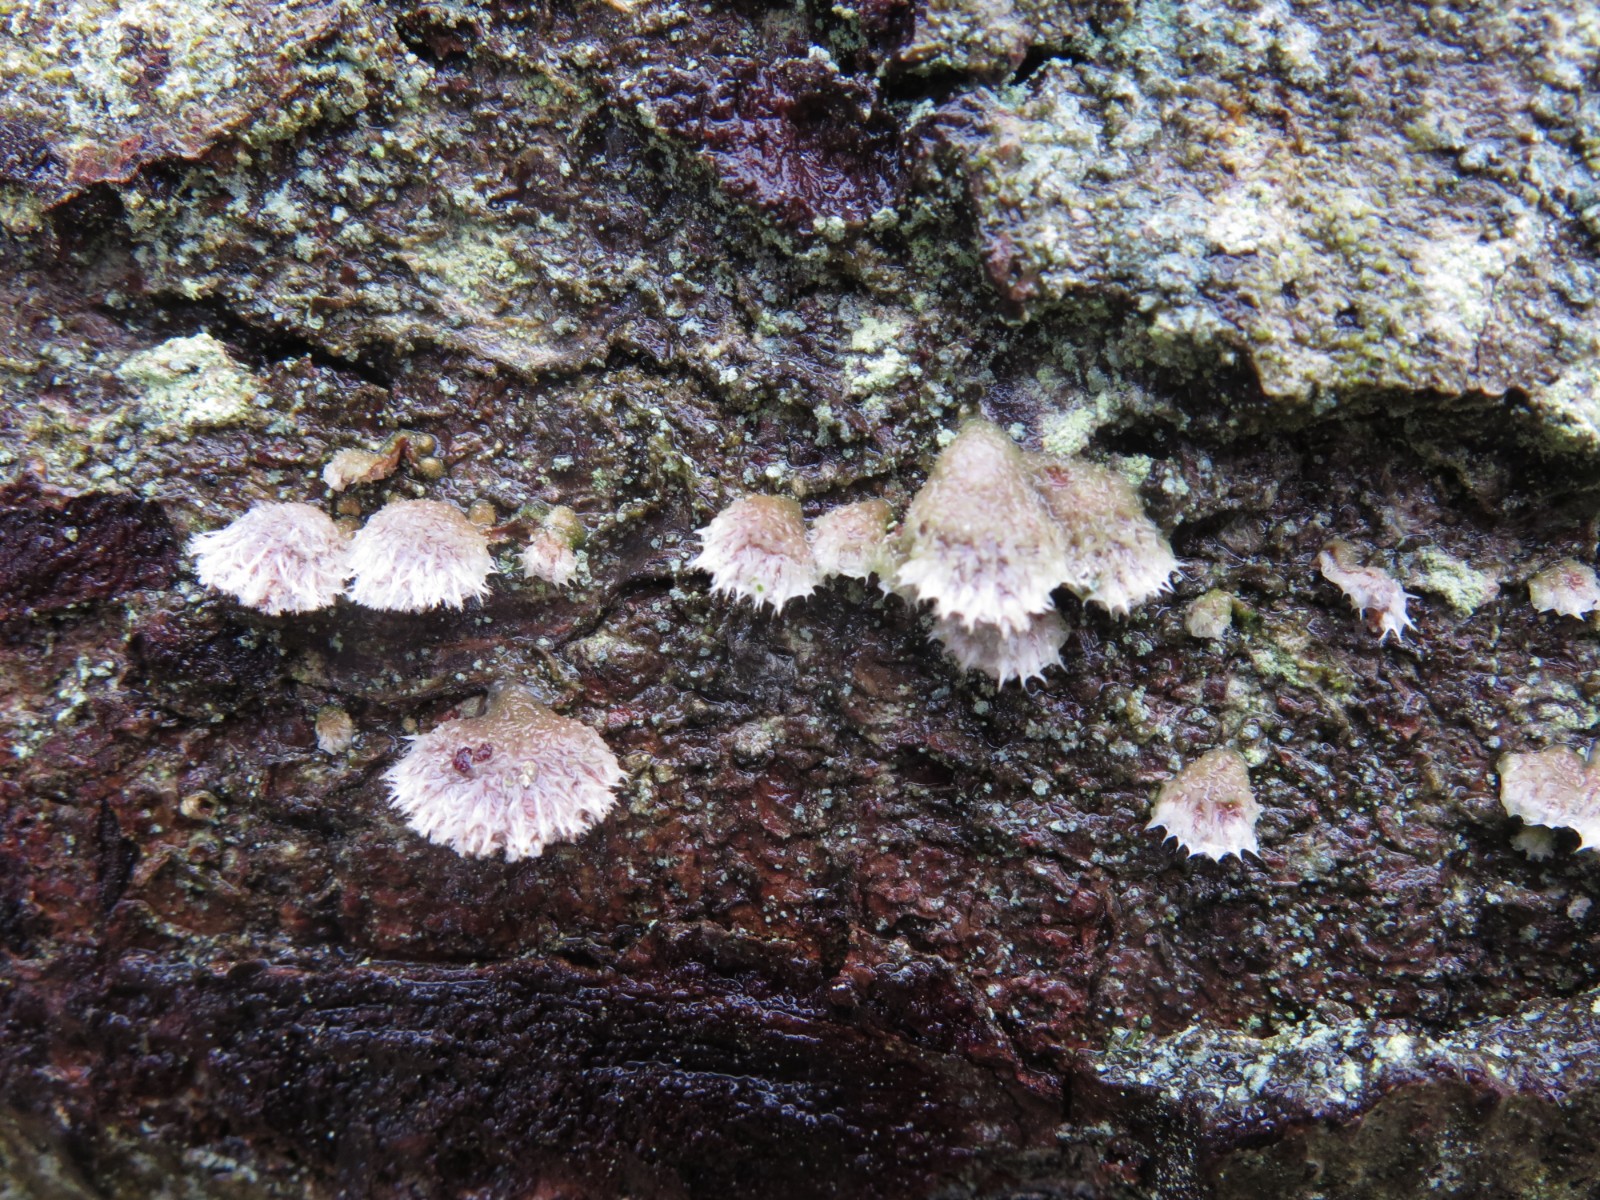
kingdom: Fungi
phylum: Basidiomycota
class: Agaricomycetes
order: Agaricales
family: Schizophyllaceae
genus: Schizophyllum
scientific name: Schizophyllum commune
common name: kløvblad
